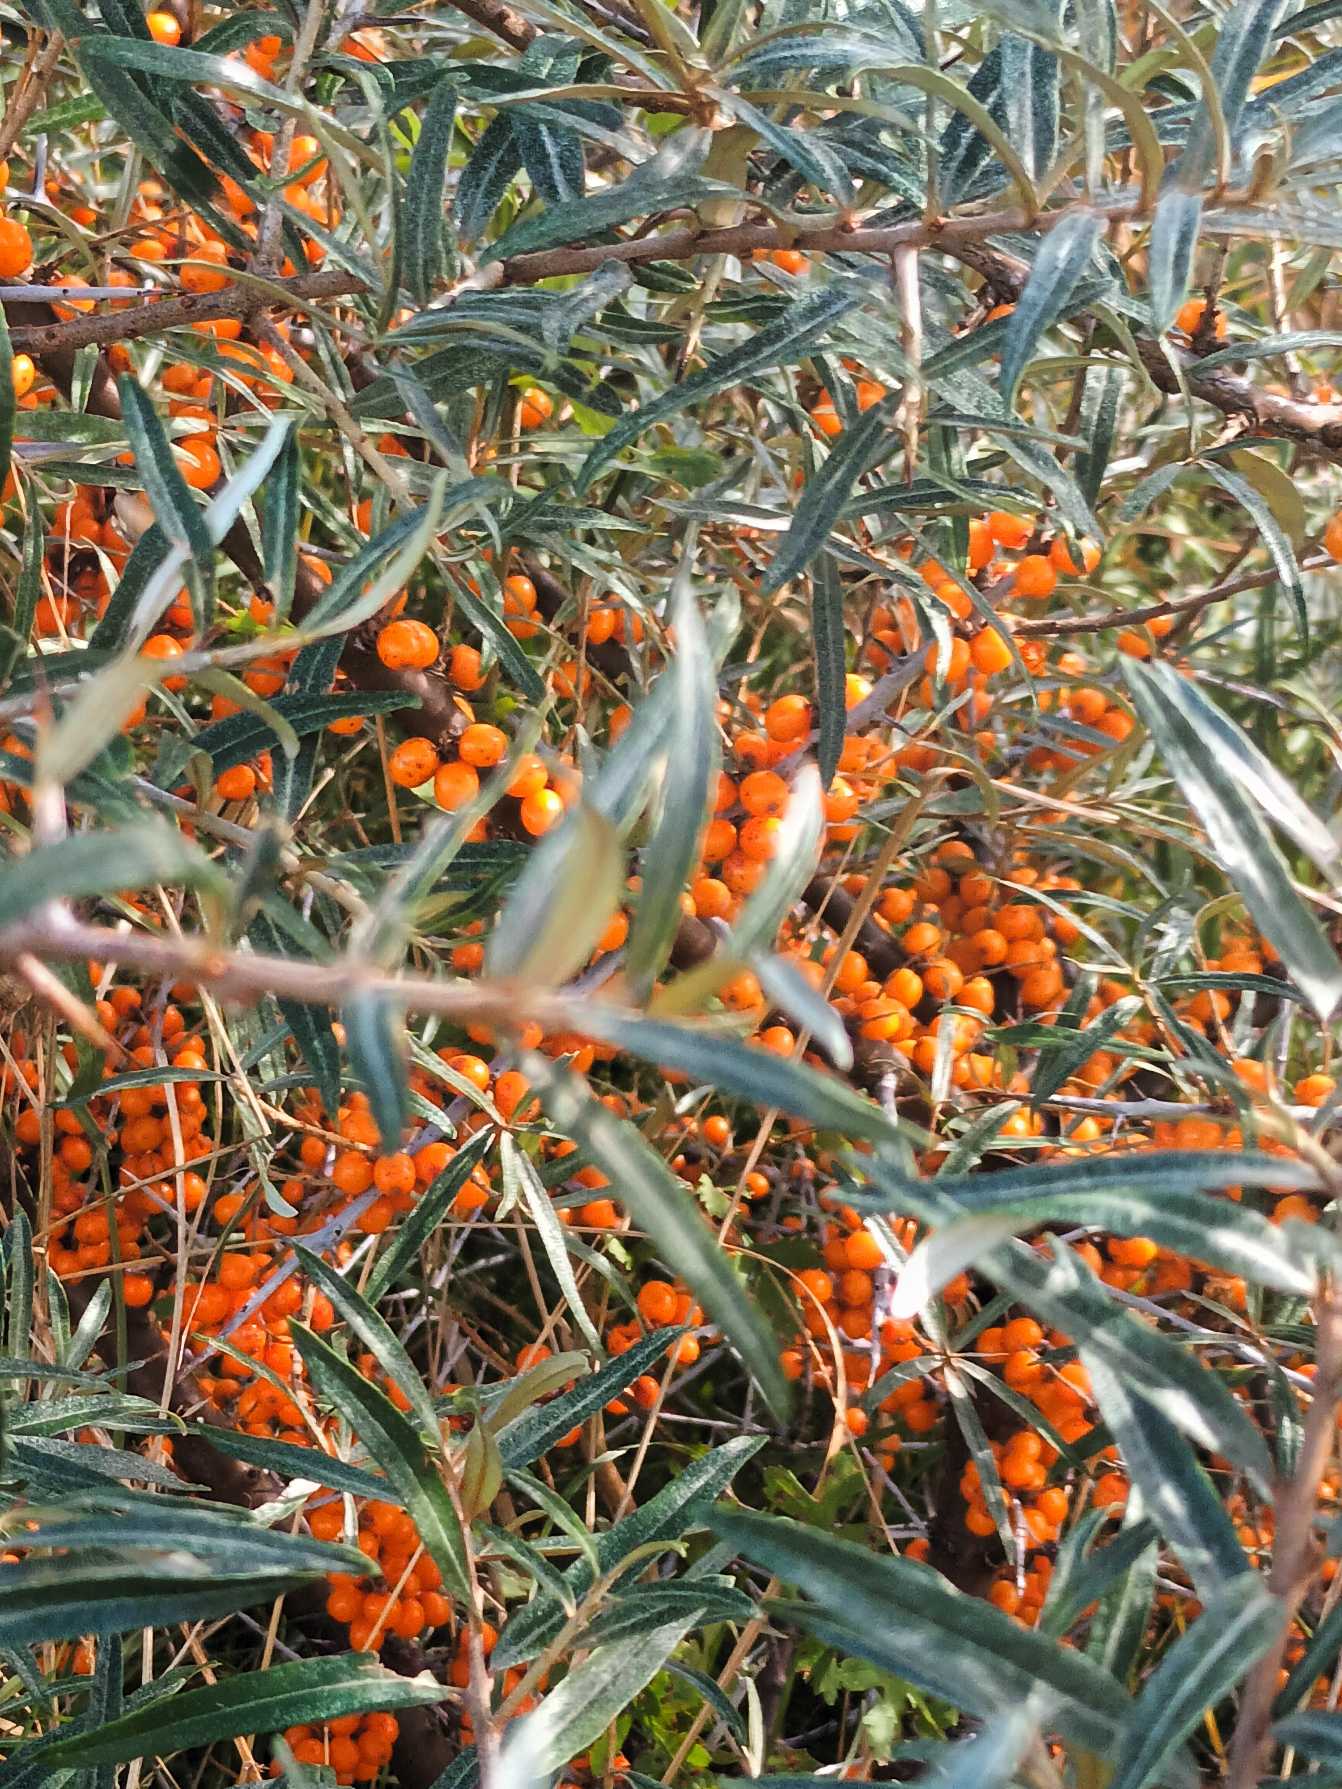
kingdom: Plantae
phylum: Tracheophyta
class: Magnoliopsida
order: Rosales
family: Elaeagnaceae
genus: Hippophae
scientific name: Hippophae rhamnoides
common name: Havtorn
